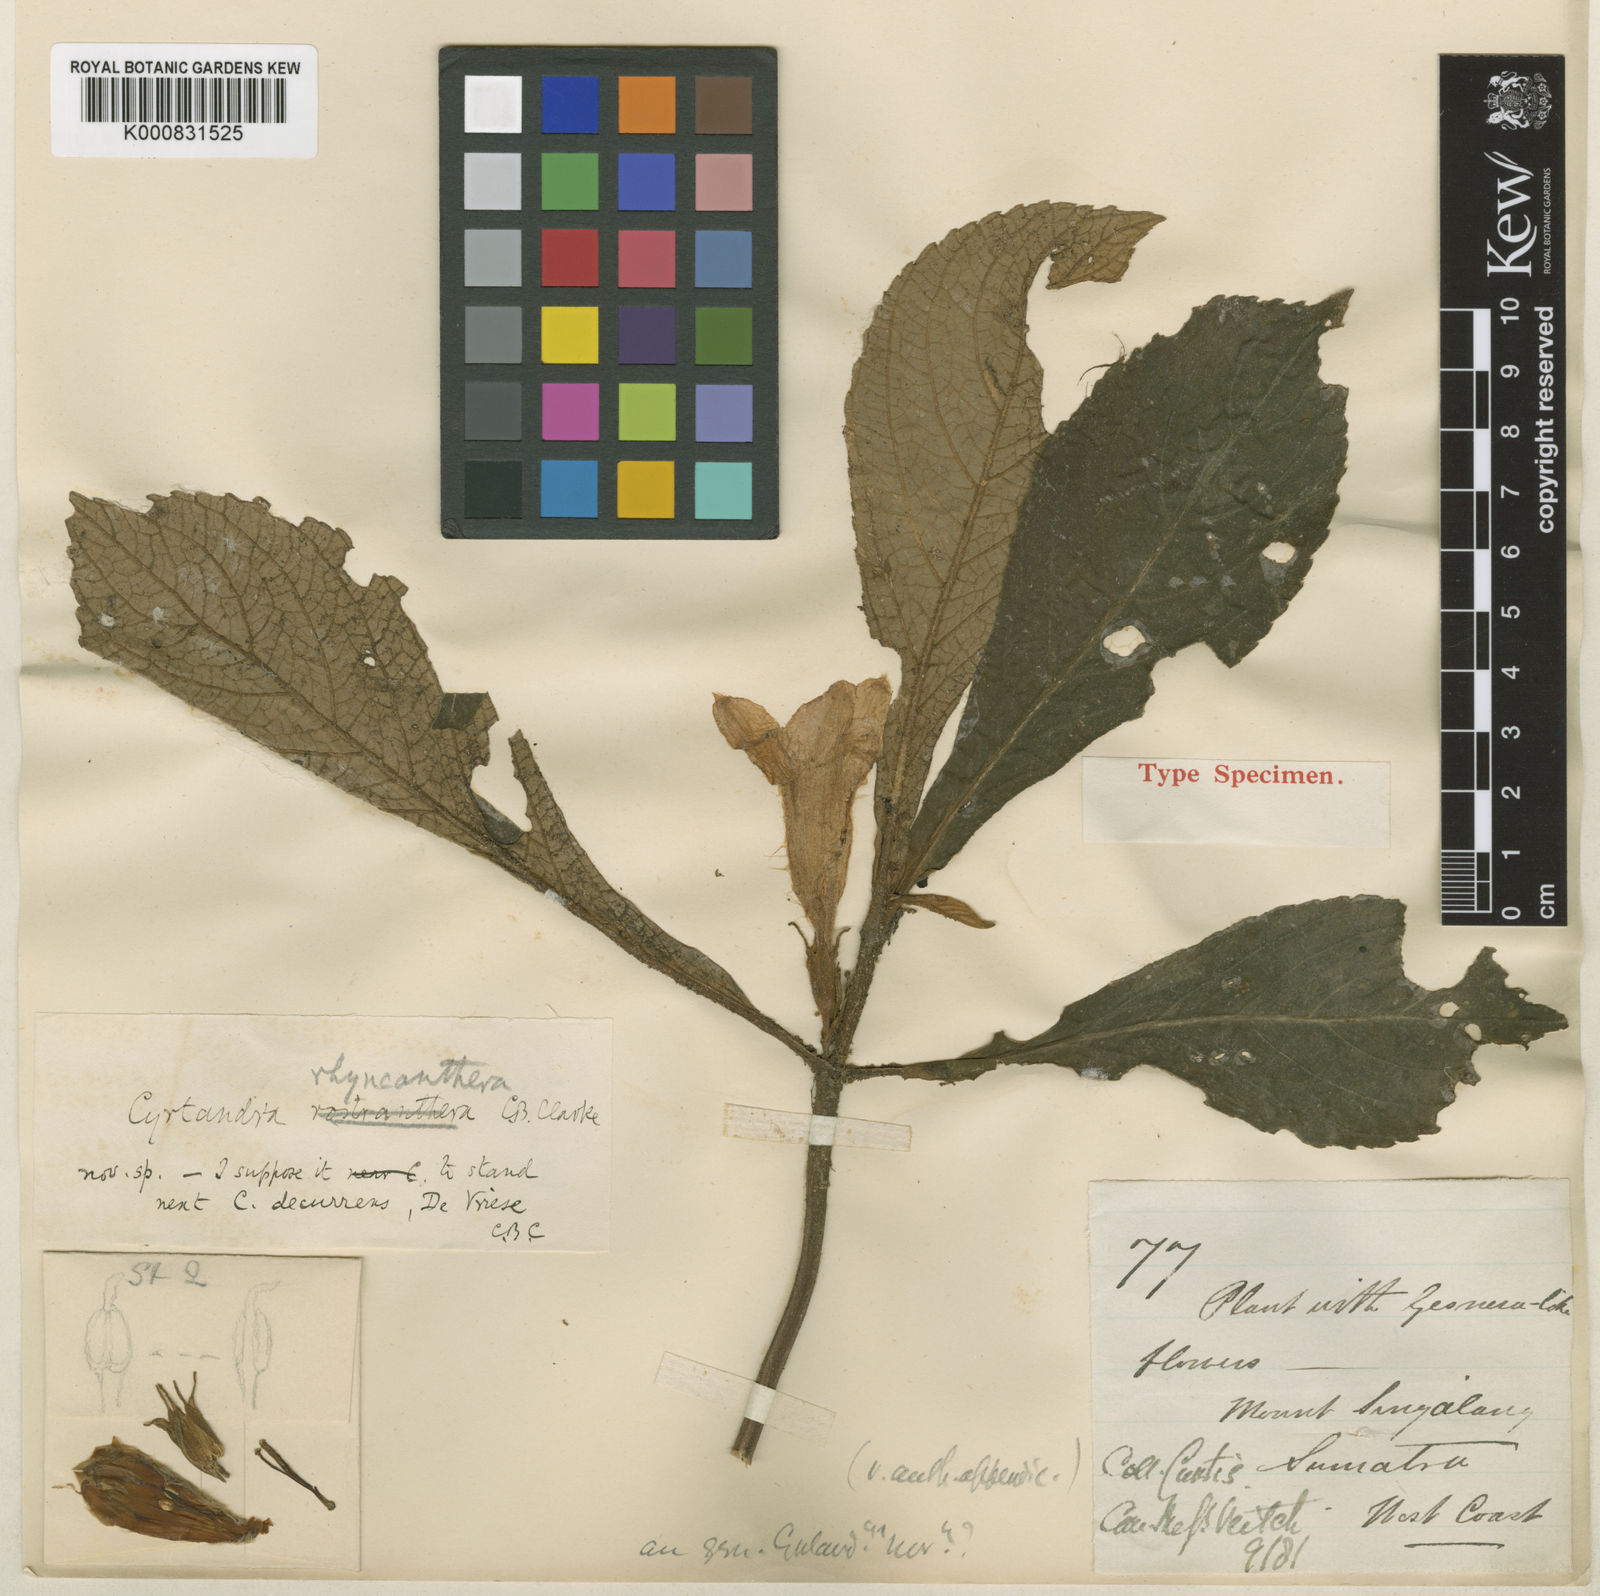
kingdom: Plantae
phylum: Tracheophyta
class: Magnoliopsida
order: Lamiales
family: Gesneriaceae
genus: Cyrtandra
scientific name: Cyrtandra rhyncanthera
